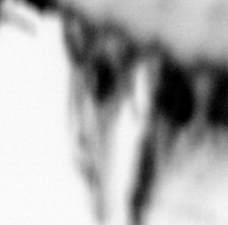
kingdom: Animalia
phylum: Annelida
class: Polychaeta
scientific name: Polychaeta
